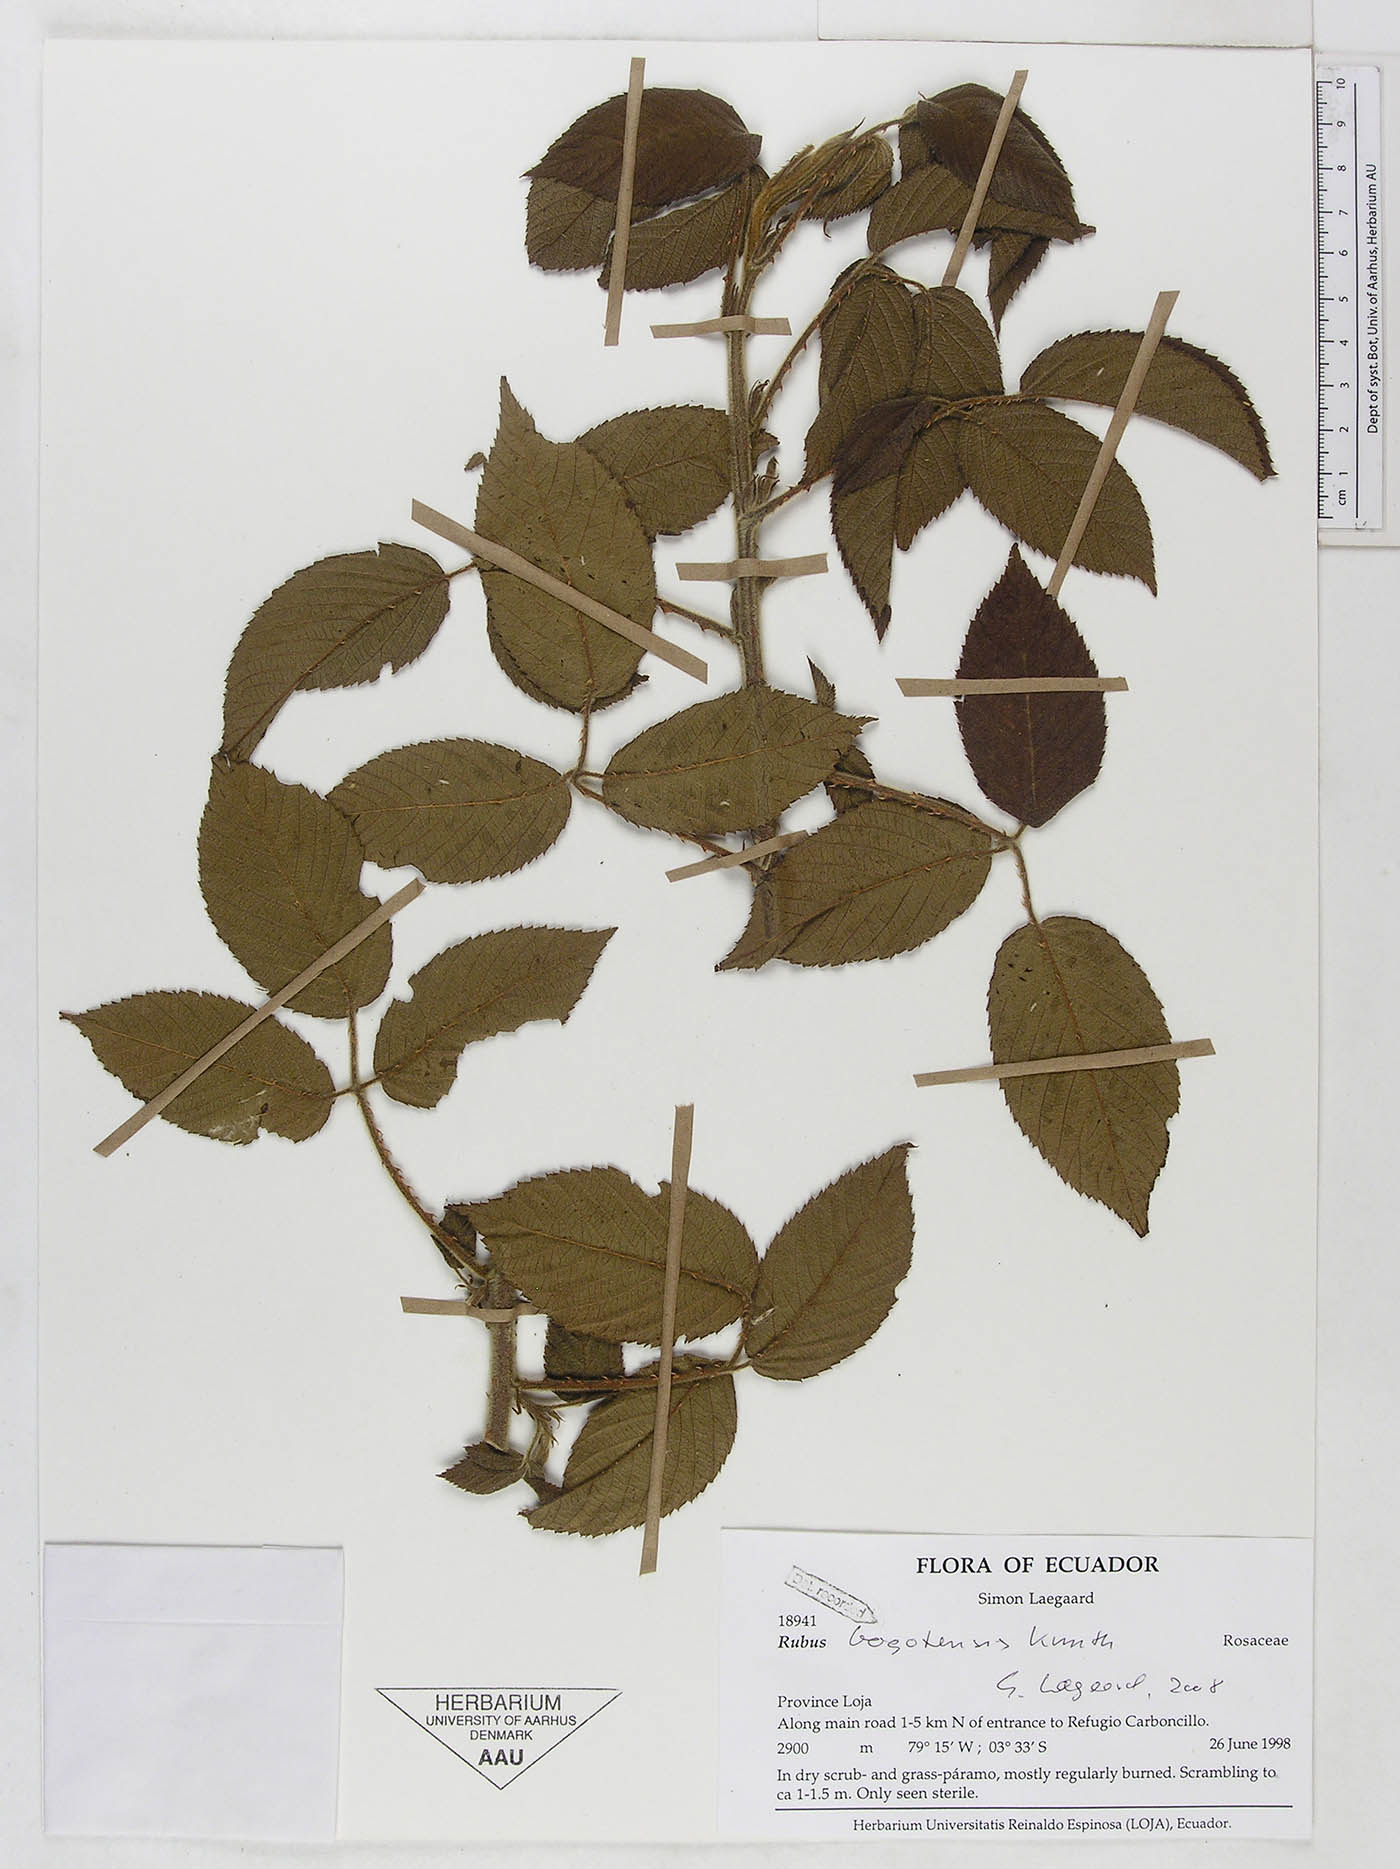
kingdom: Plantae
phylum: Tracheophyta
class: Magnoliopsida
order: Rosales
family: Rosaceae
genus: Rubus
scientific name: Rubus bogotensis
